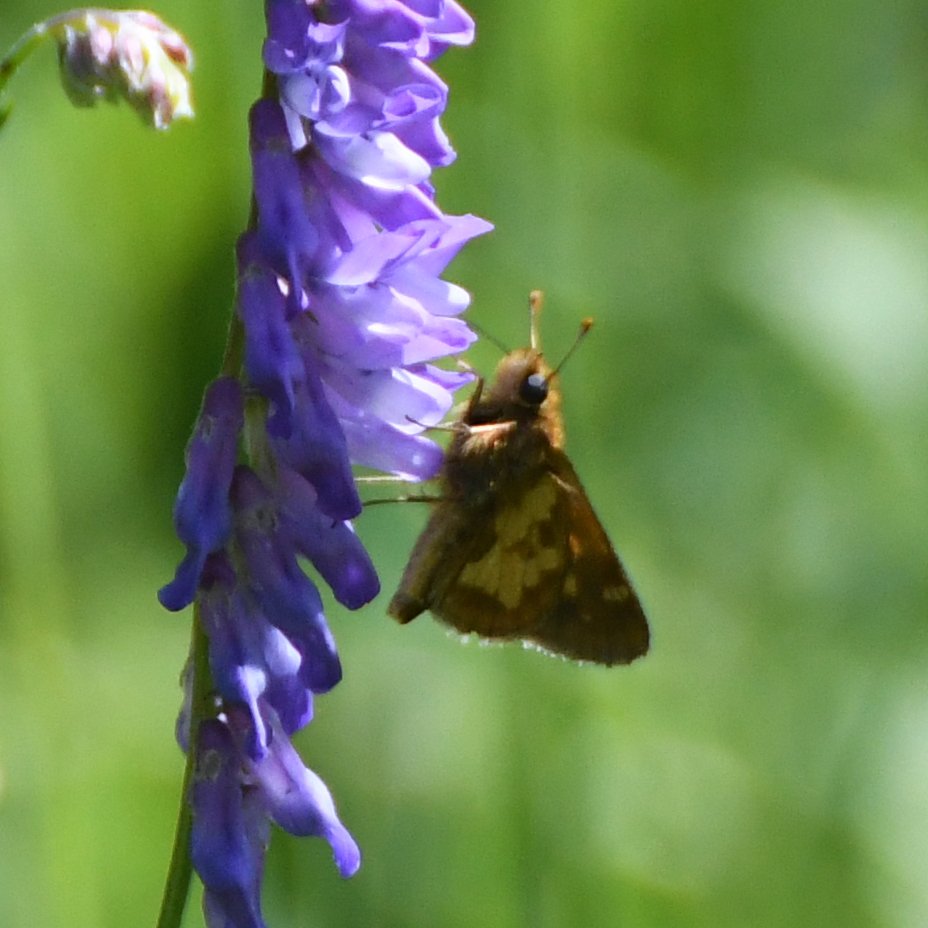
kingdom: Animalia
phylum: Arthropoda
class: Insecta
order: Lepidoptera
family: Hesperiidae
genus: Polites
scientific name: Polites coras
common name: Peck's Skipper
